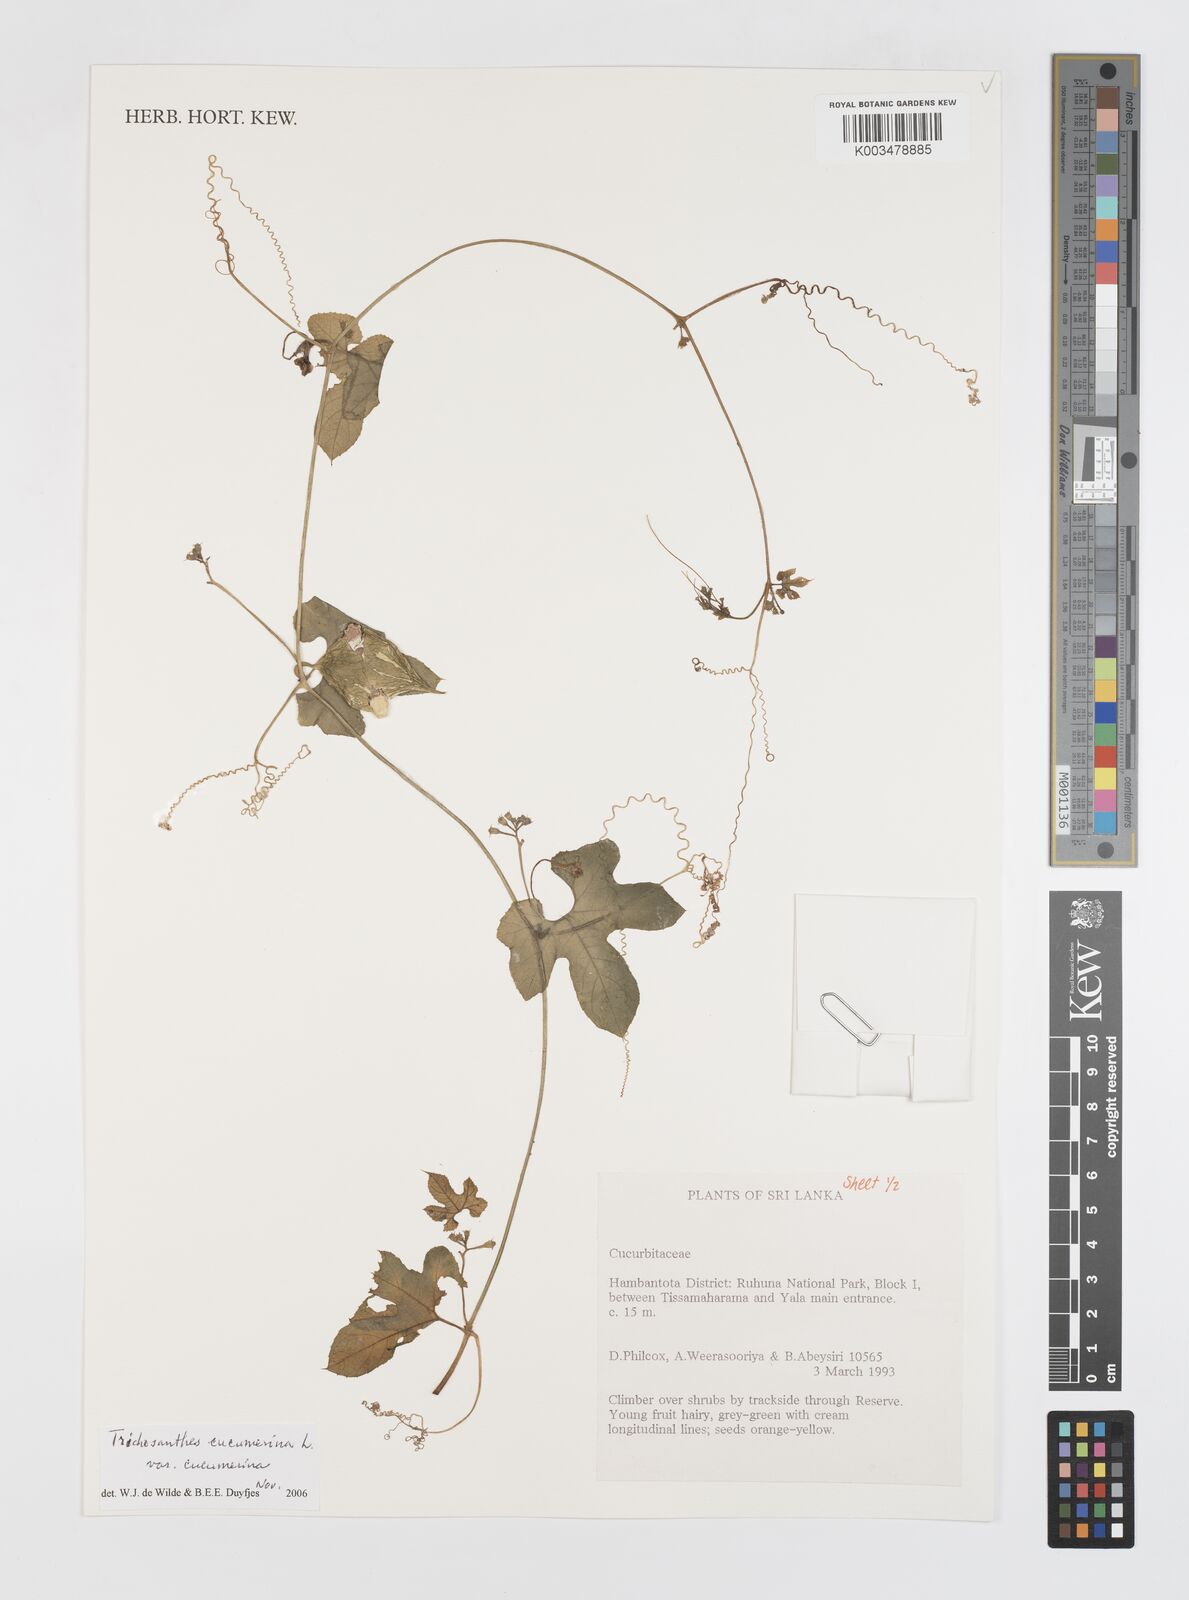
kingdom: Plantae
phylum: Tracheophyta
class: Magnoliopsida
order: Cucurbitales
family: Cucurbitaceae
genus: Trichosanthes
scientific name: Trichosanthes cucumerina
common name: Snakegourd
